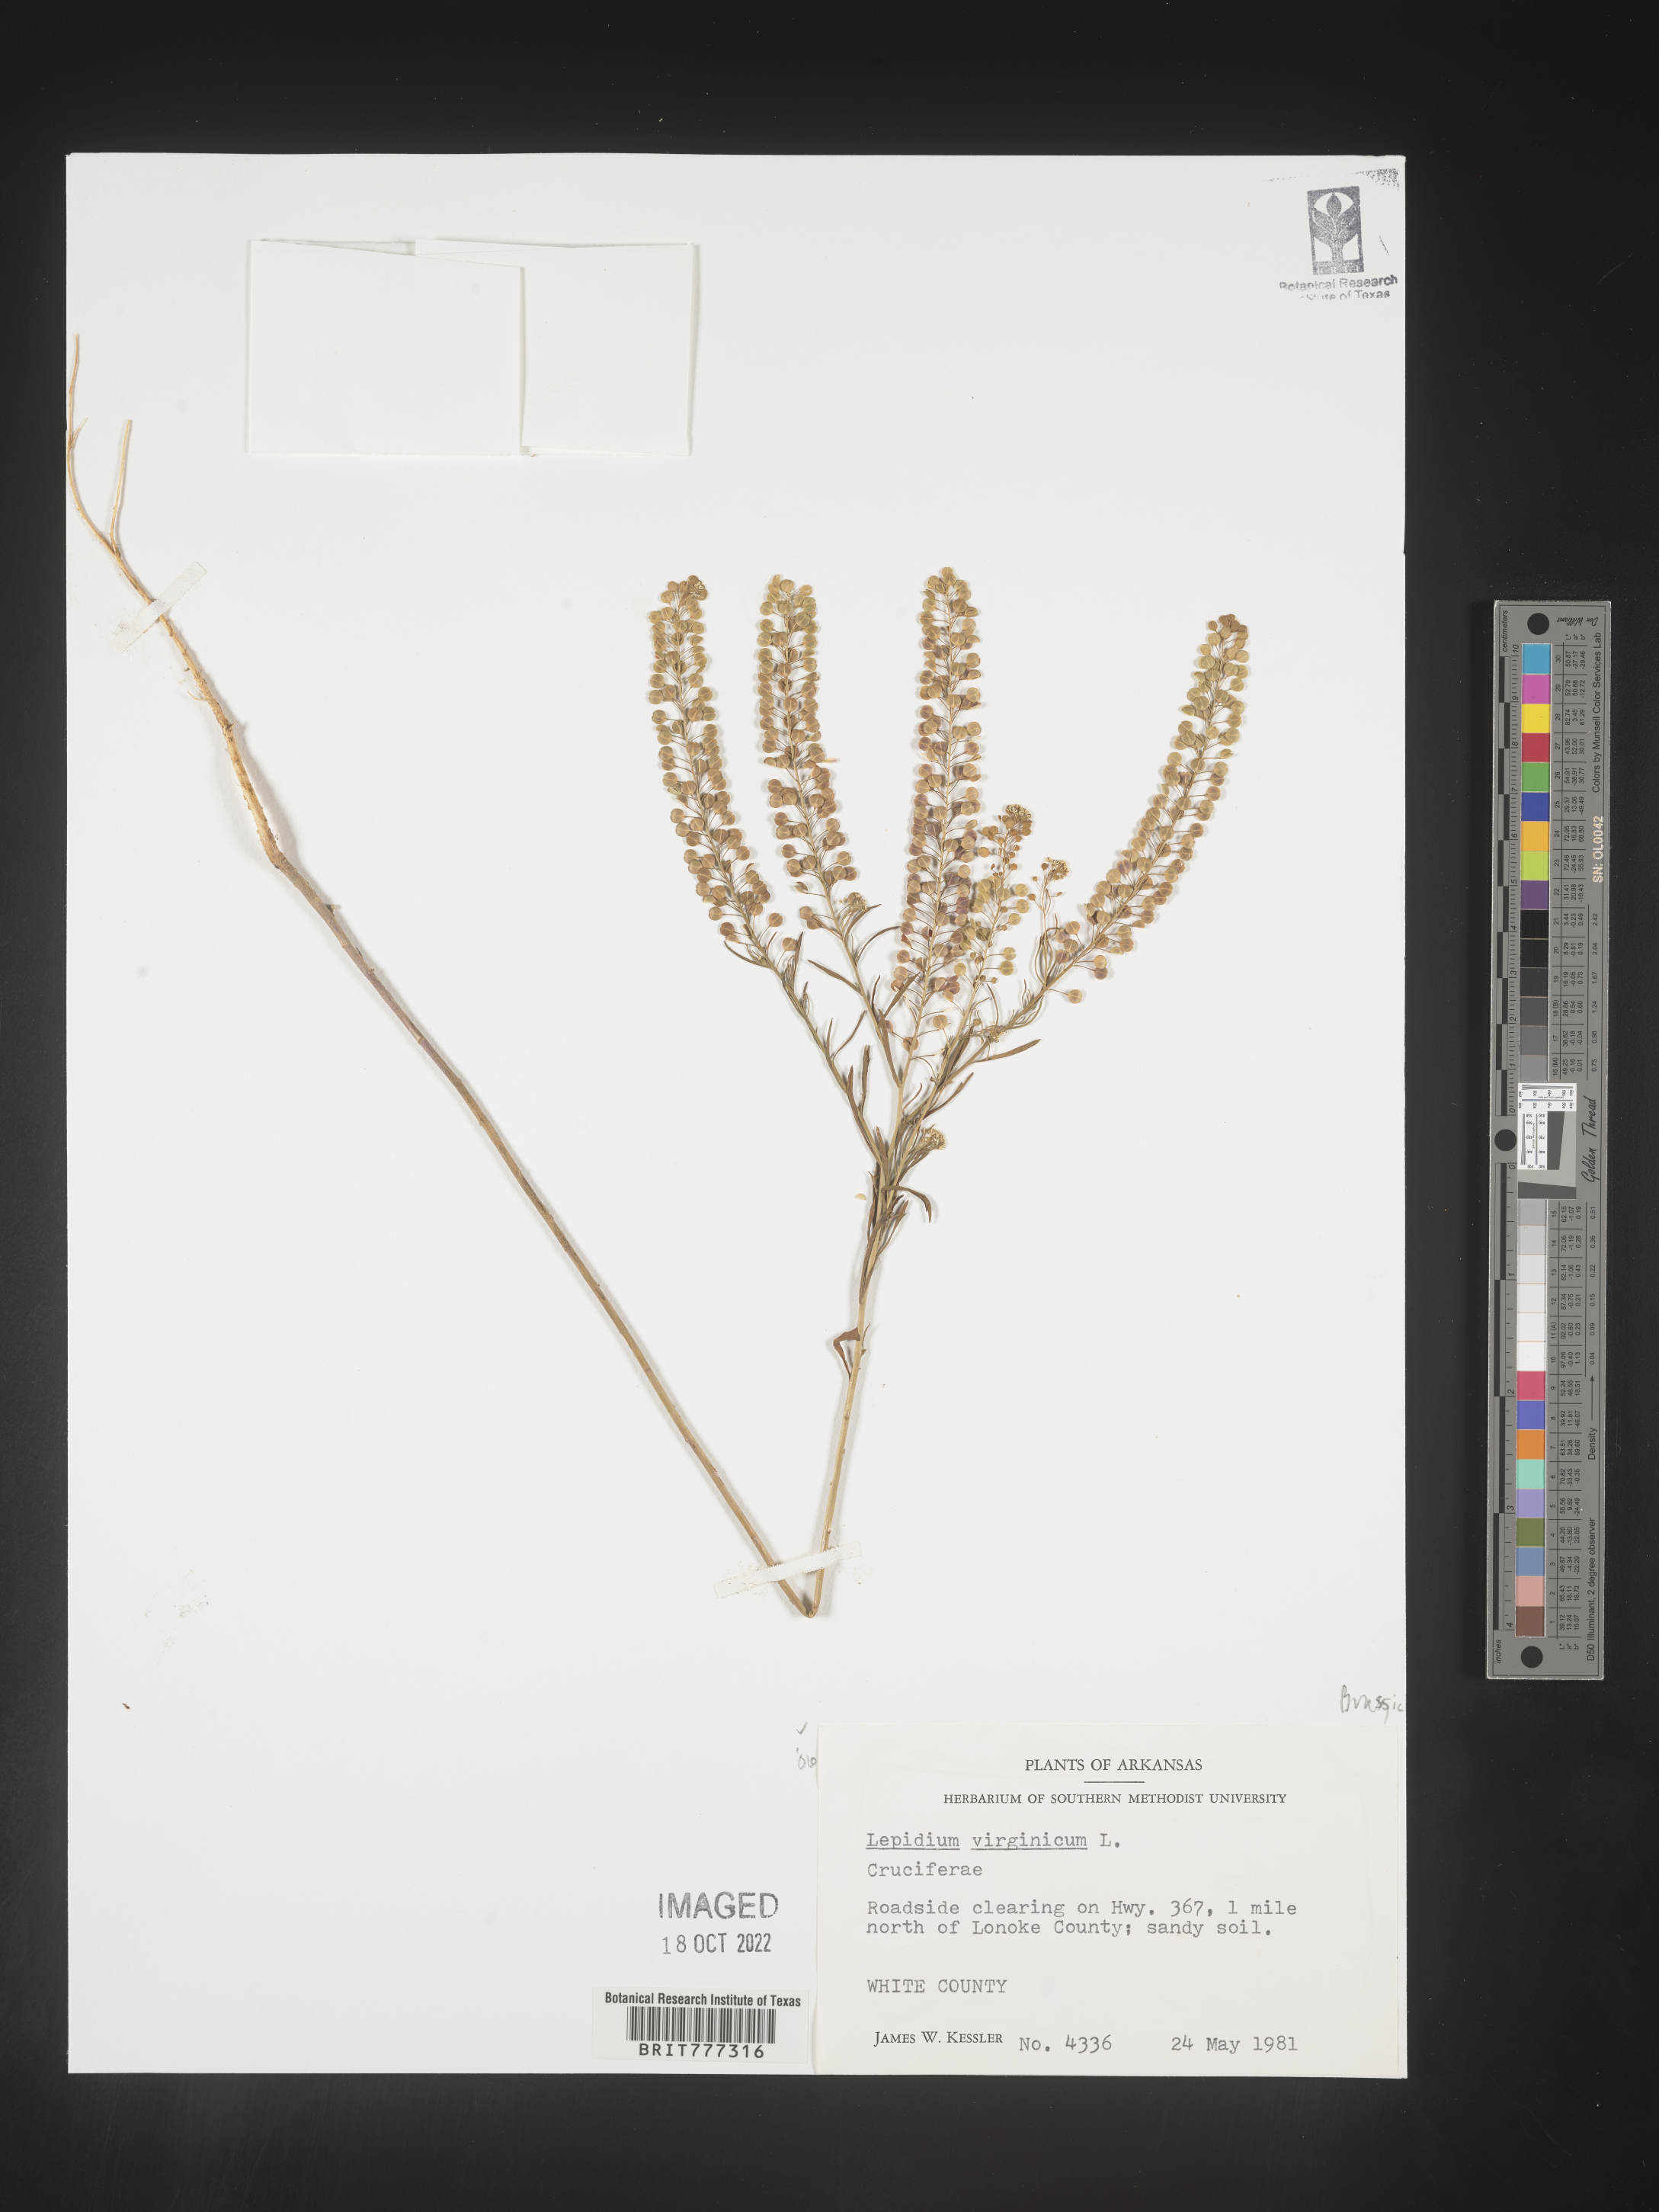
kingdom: Plantae
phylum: Tracheophyta
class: Magnoliopsida
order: Brassicales
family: Brassicaceae
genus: Lepidium
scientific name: Lepidium virginicum
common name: Least pepperwort
